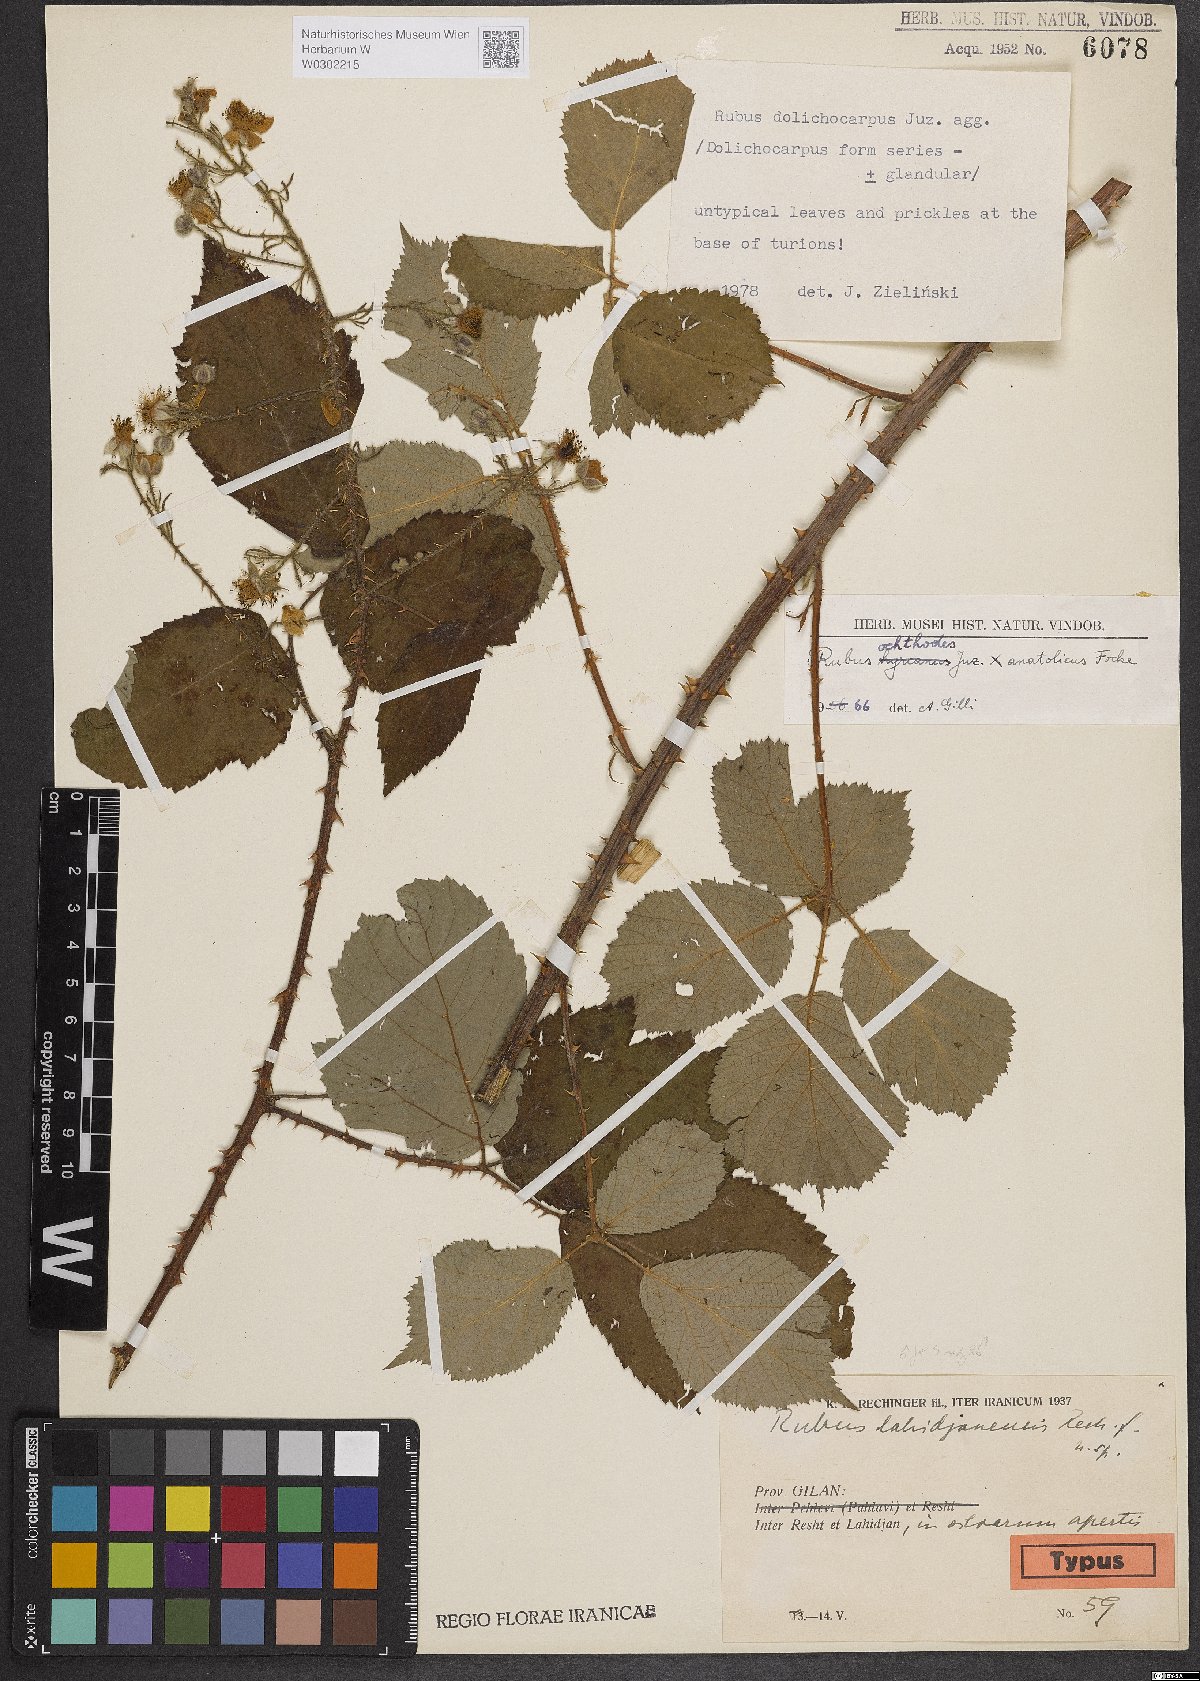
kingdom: Plantae
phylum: Tracheophyta
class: Magnoliopsida
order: Rosales
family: Rosaceae
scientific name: Rosaceae
